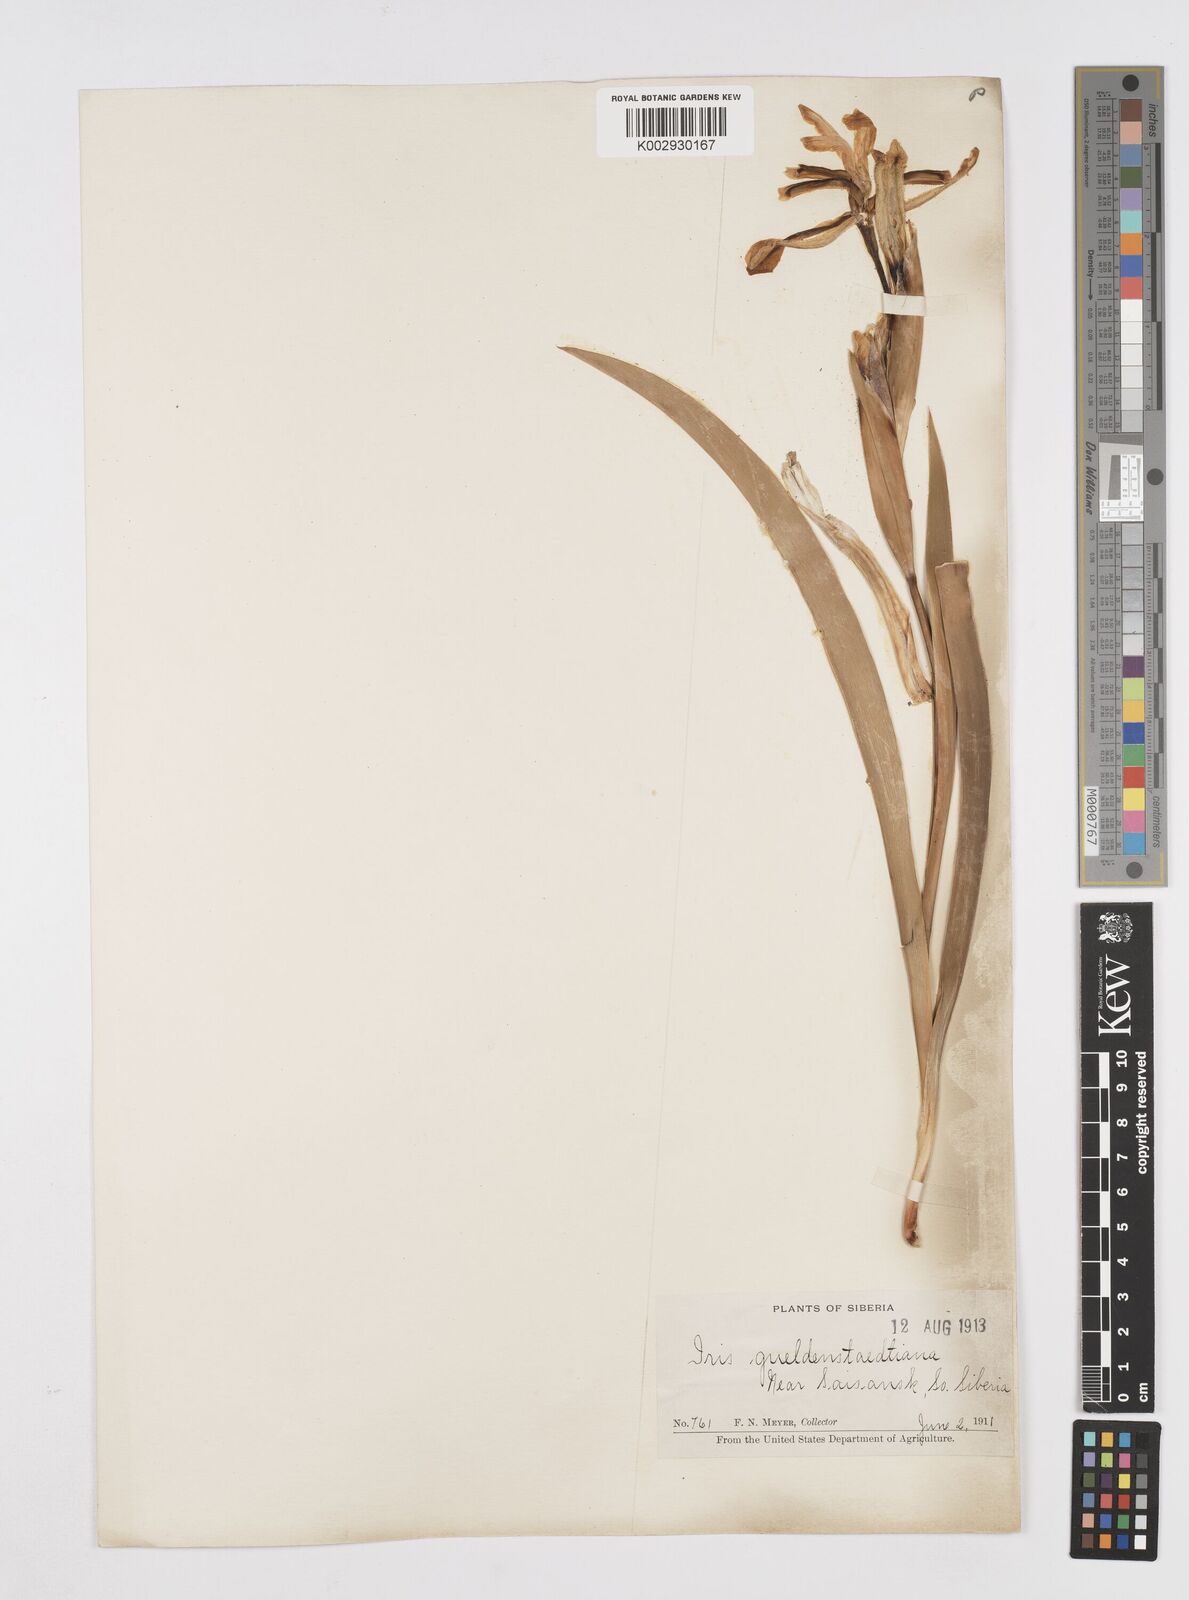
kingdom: Plantae
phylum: Tracheophyta
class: Liliopsida
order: Asparagales
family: Iridaceae
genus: Iris
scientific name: Iris halophila
